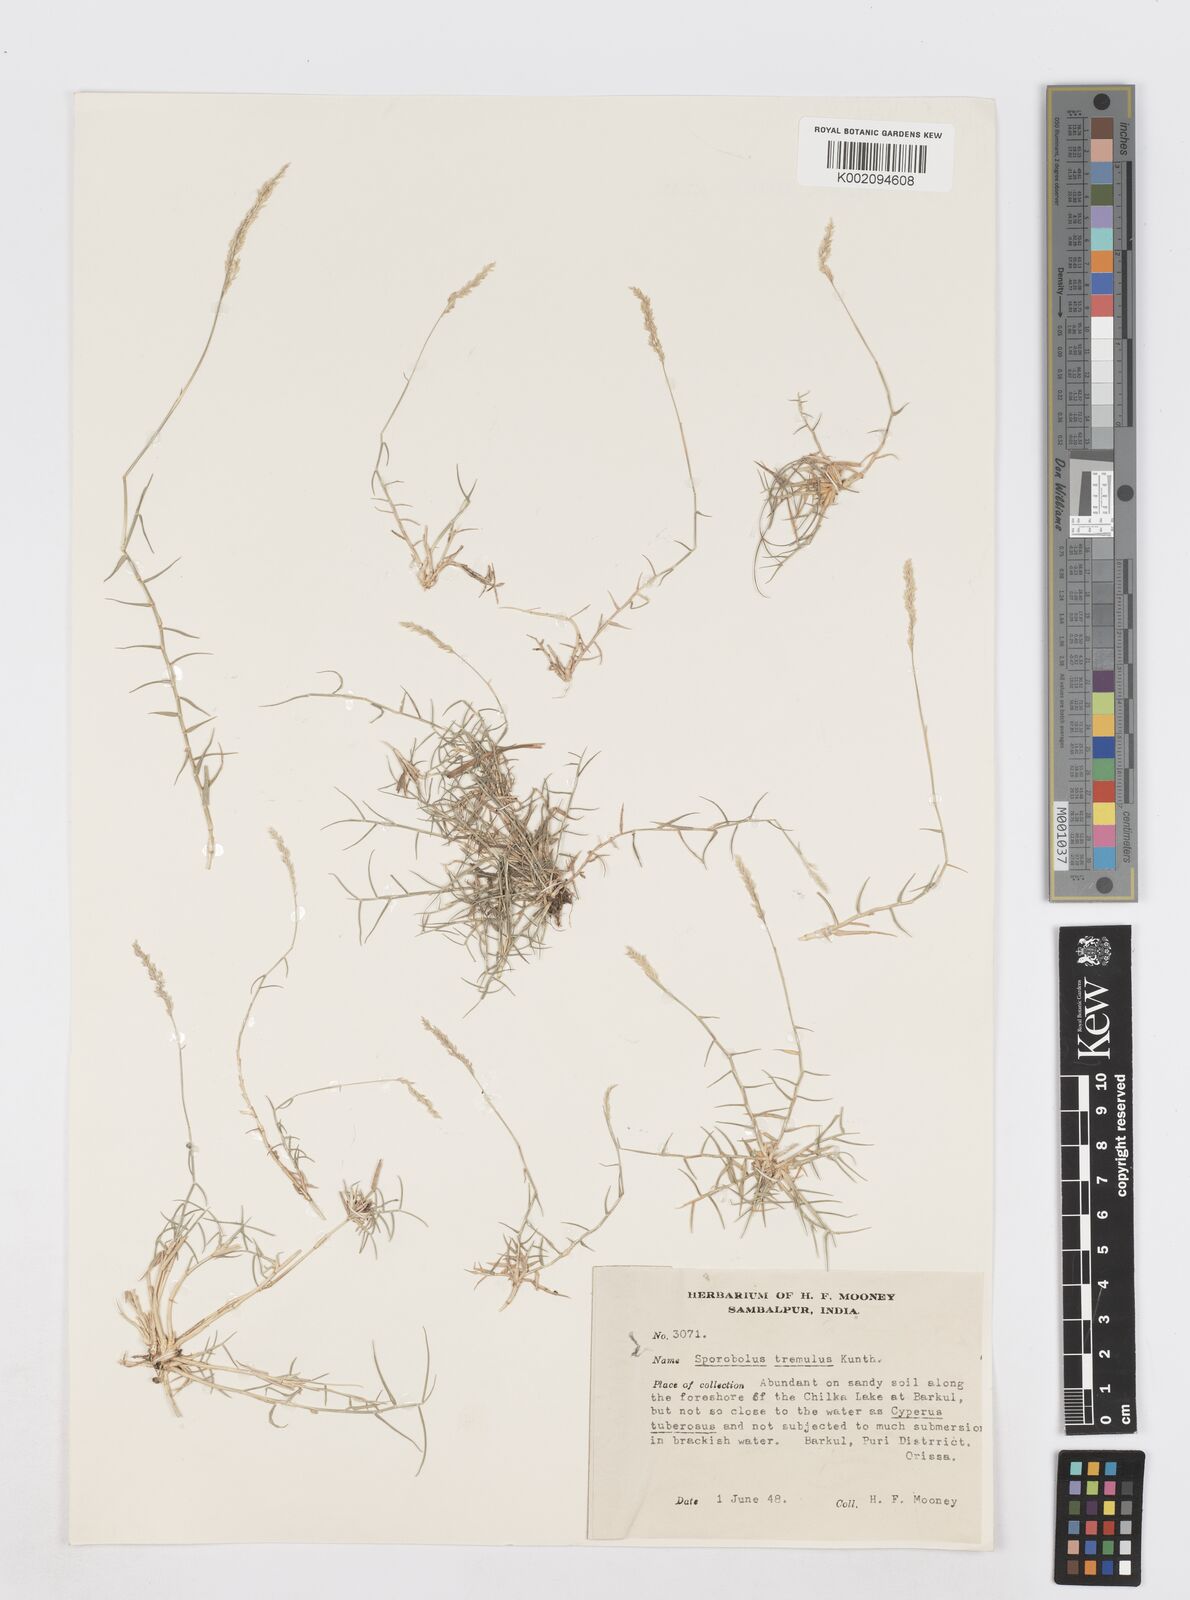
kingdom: Plantae
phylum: Tracheophyta
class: Liliopsida
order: Poales
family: Poaceae
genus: Sporobolus
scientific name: Sporobolus virginicus
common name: Beach dropseed
